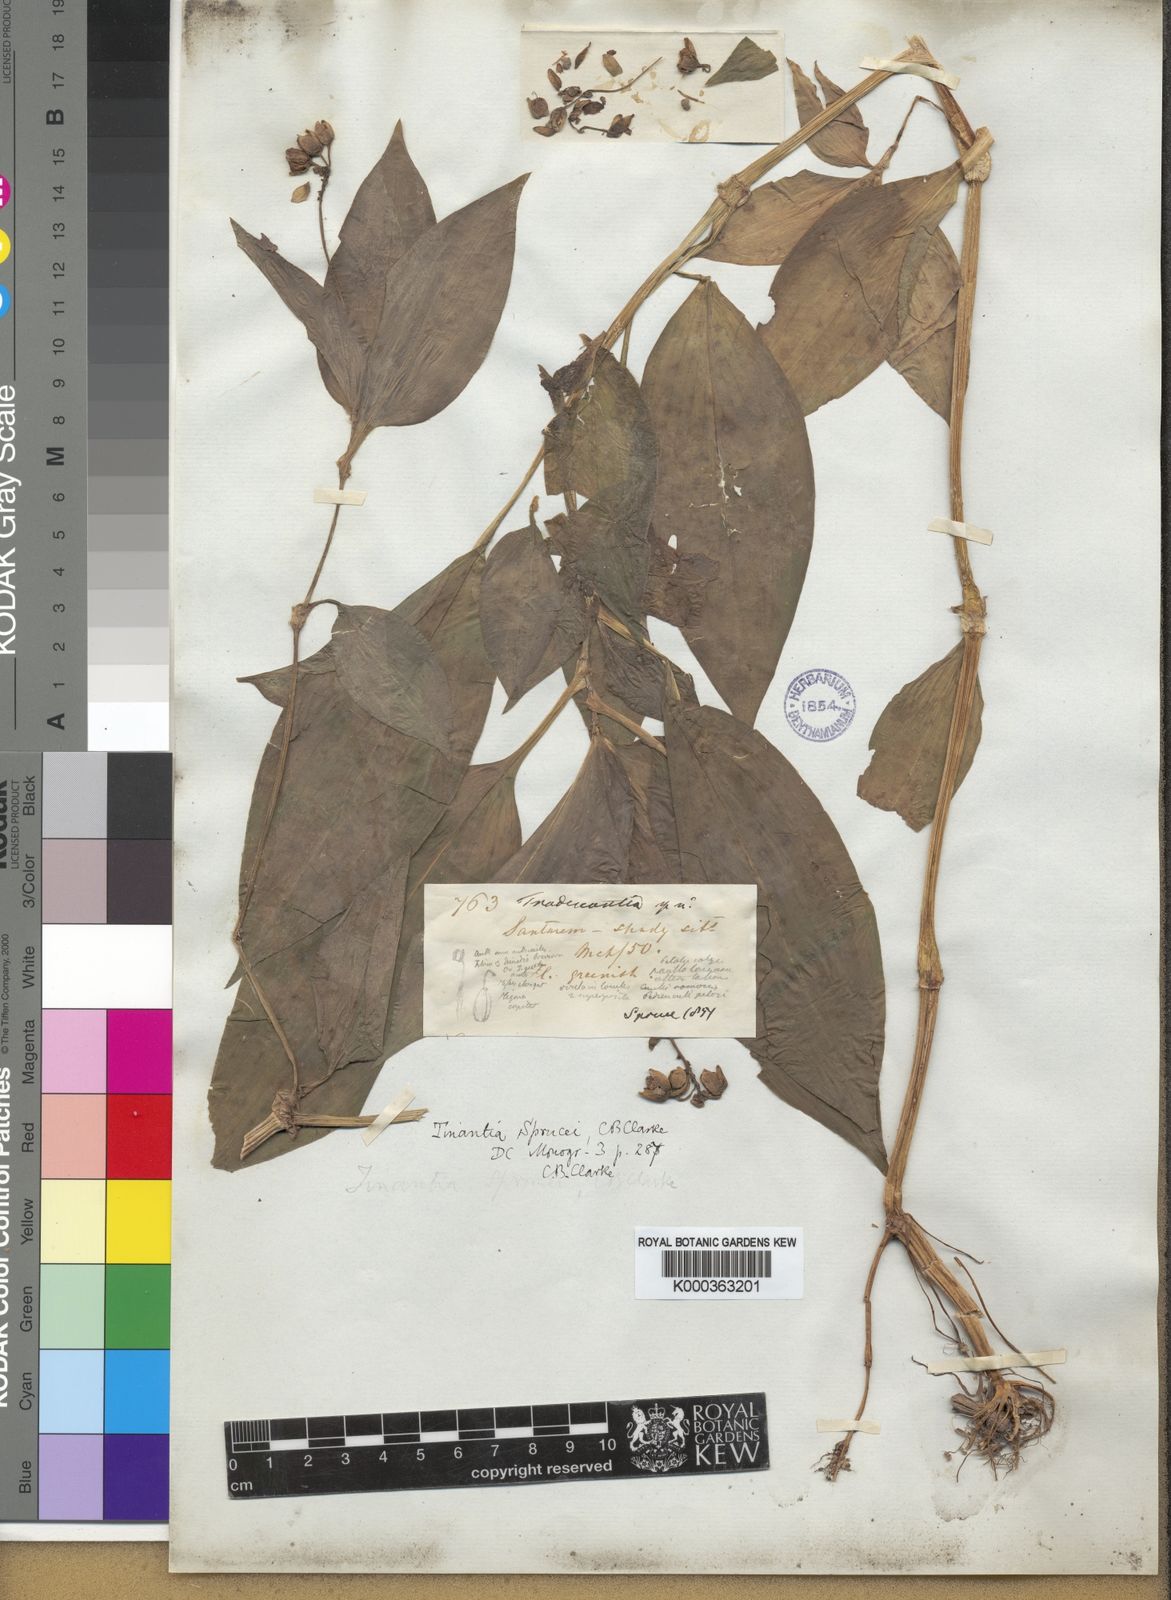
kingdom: Plantae
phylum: Tracheophyta
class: Liliopsida
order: Commelinales
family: Commelinaceae
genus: Tinantia
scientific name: Tinantia sprucei
